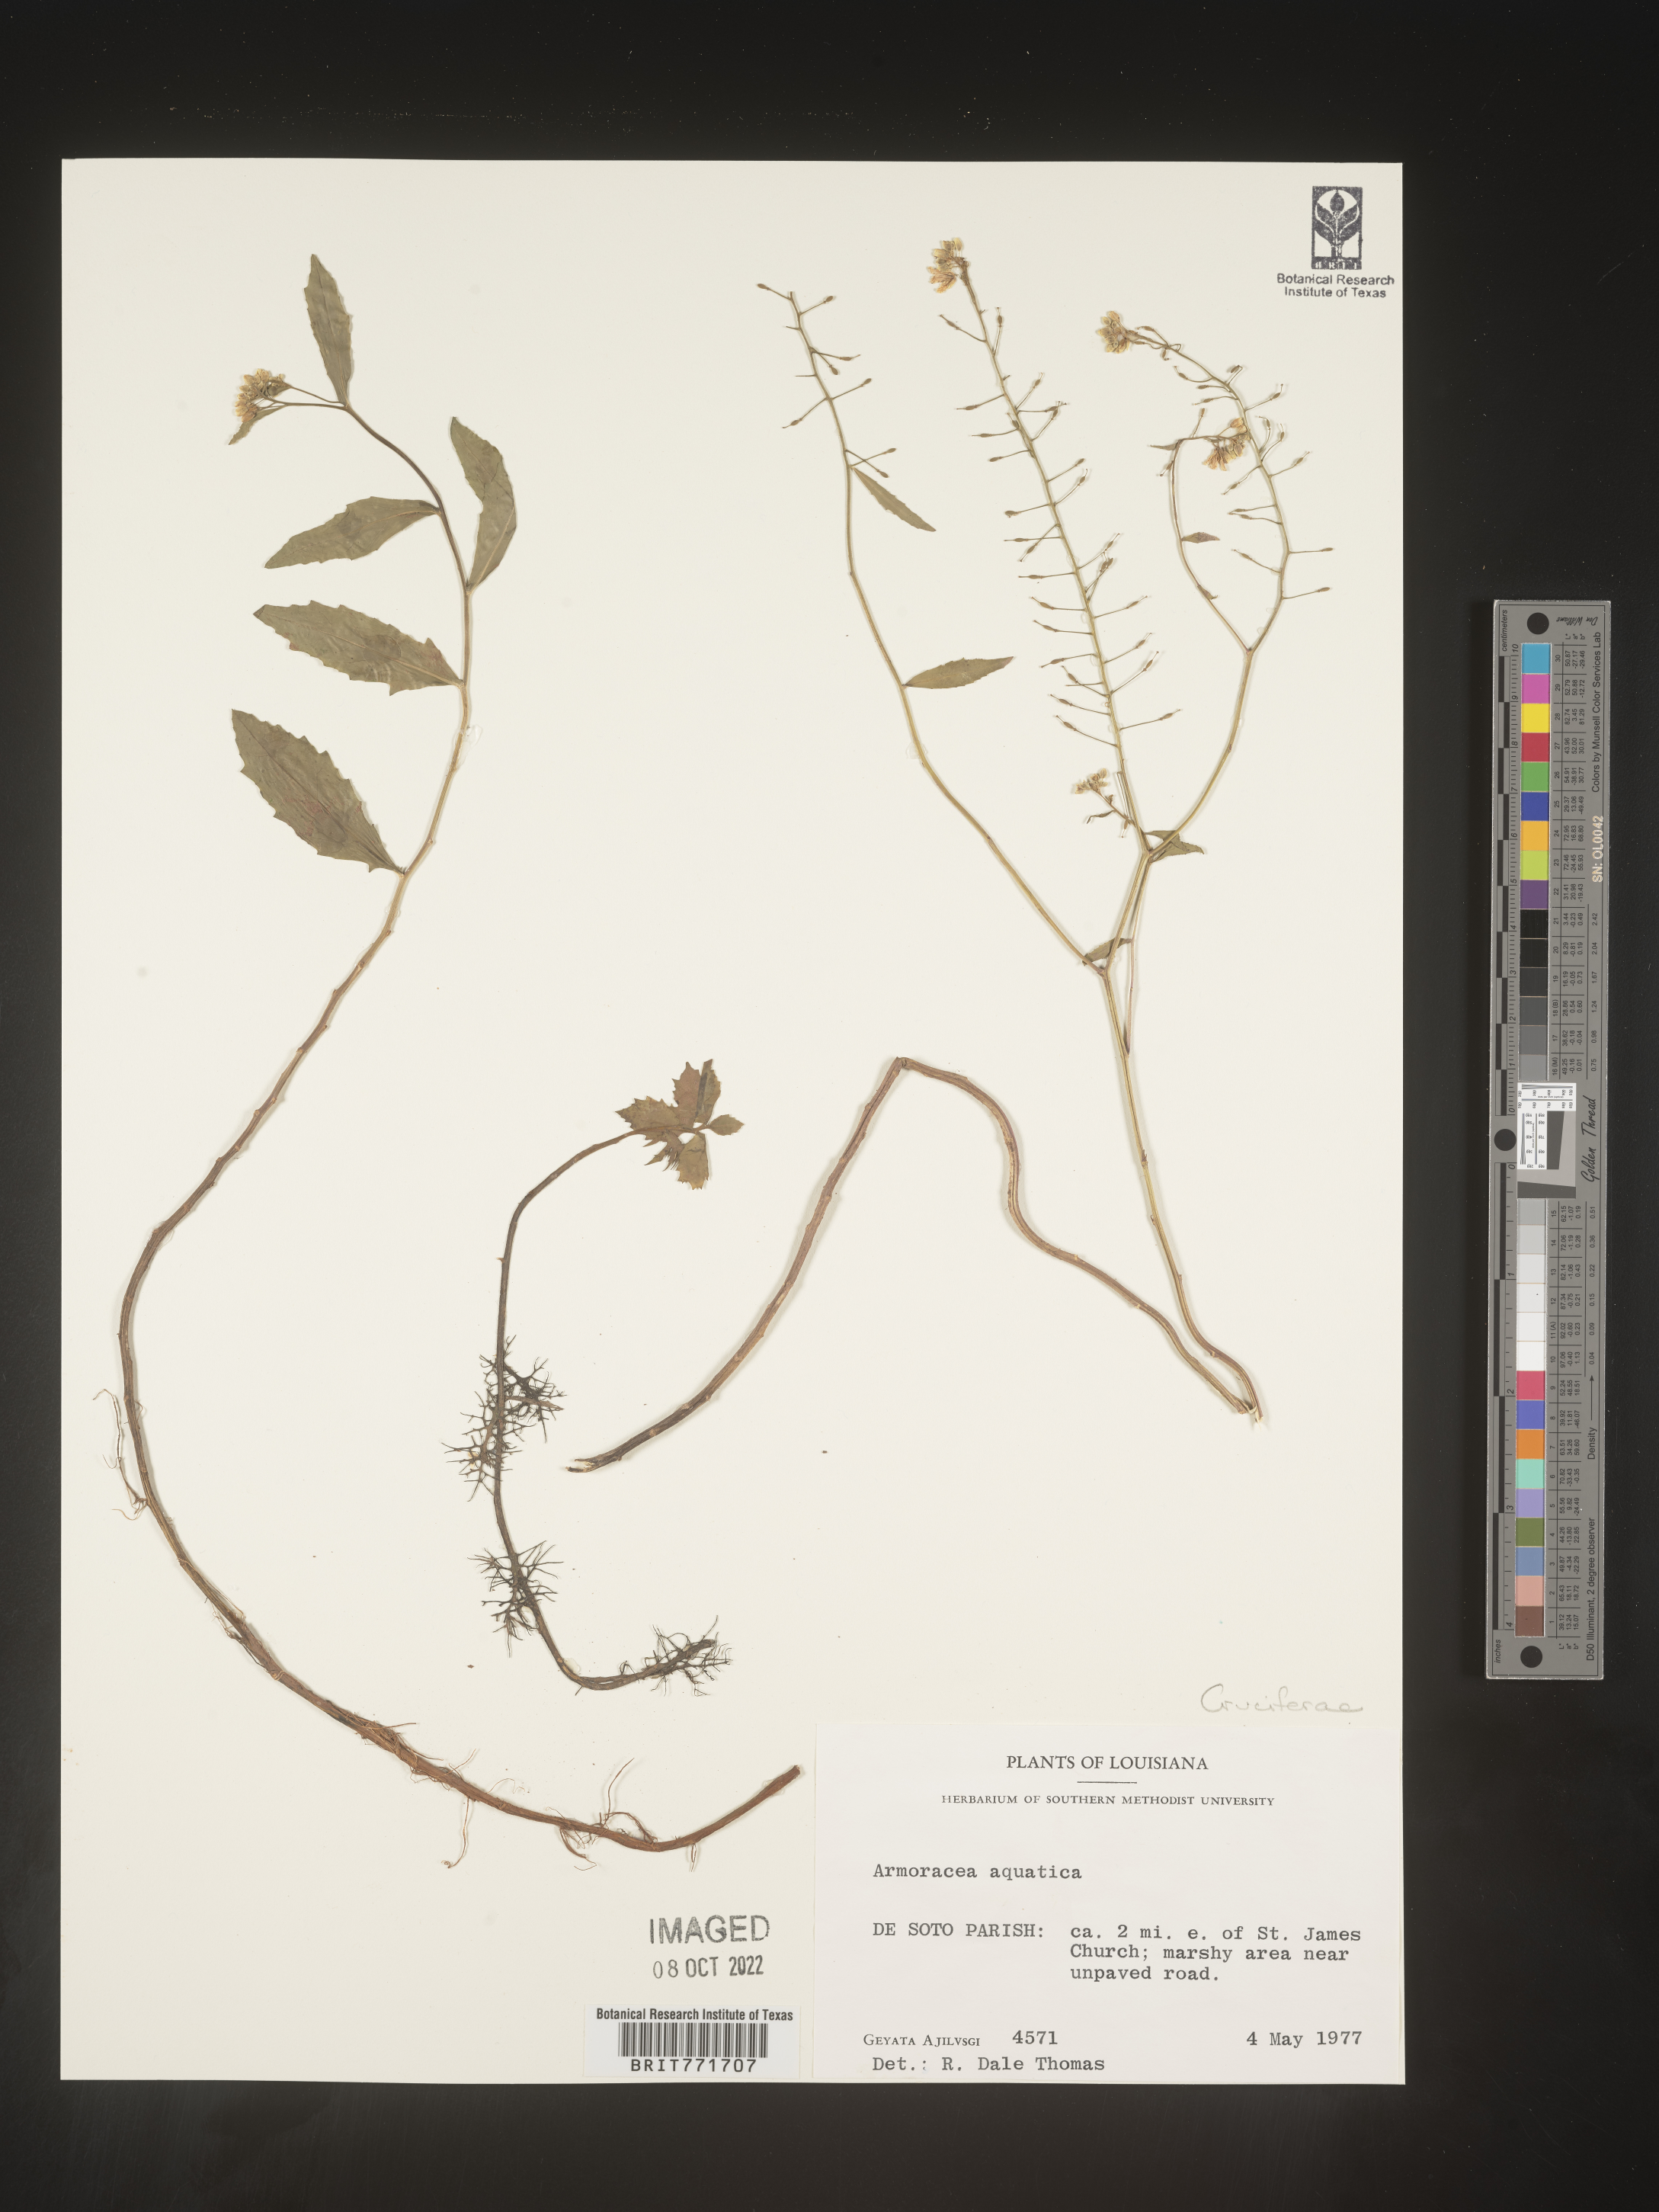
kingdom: Plantae
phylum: Tracheophyta
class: Magnoliopsida
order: Brassicales
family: Brassicaceae
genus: Armoracia
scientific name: Armoracia
